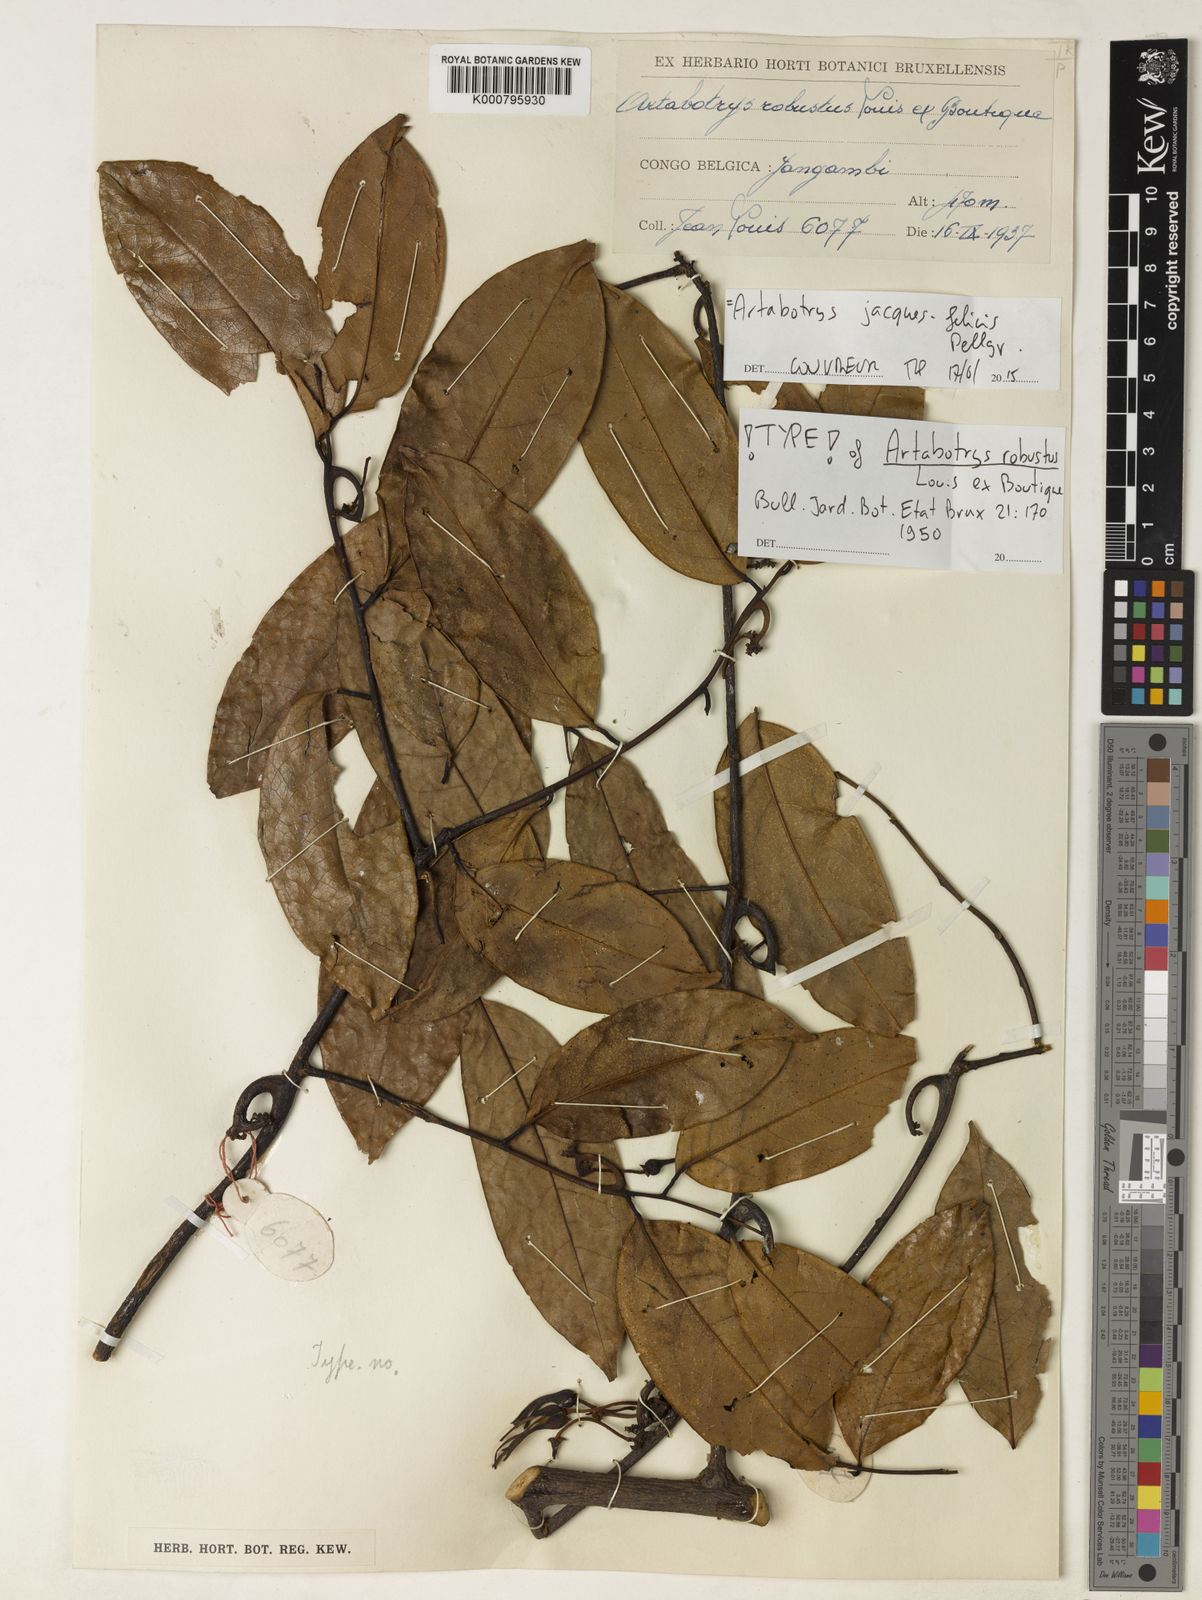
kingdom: Plantae
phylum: Tracheophyta
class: Magnoliopsida
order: Magnoliales
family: Annonaceae
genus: Artabotrys
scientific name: Artabotrys jacques-felicis
